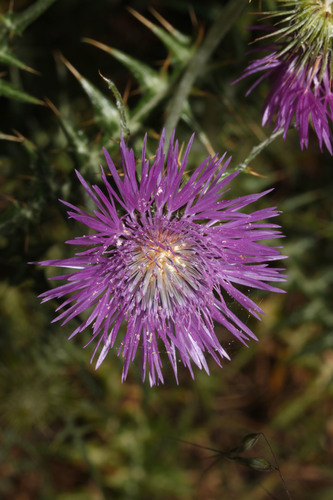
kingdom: Plantae
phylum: Tracheophyta
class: Magnoliopsida
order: Asterales
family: Asteraceae
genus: Galactites
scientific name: Galactites tomentosa
